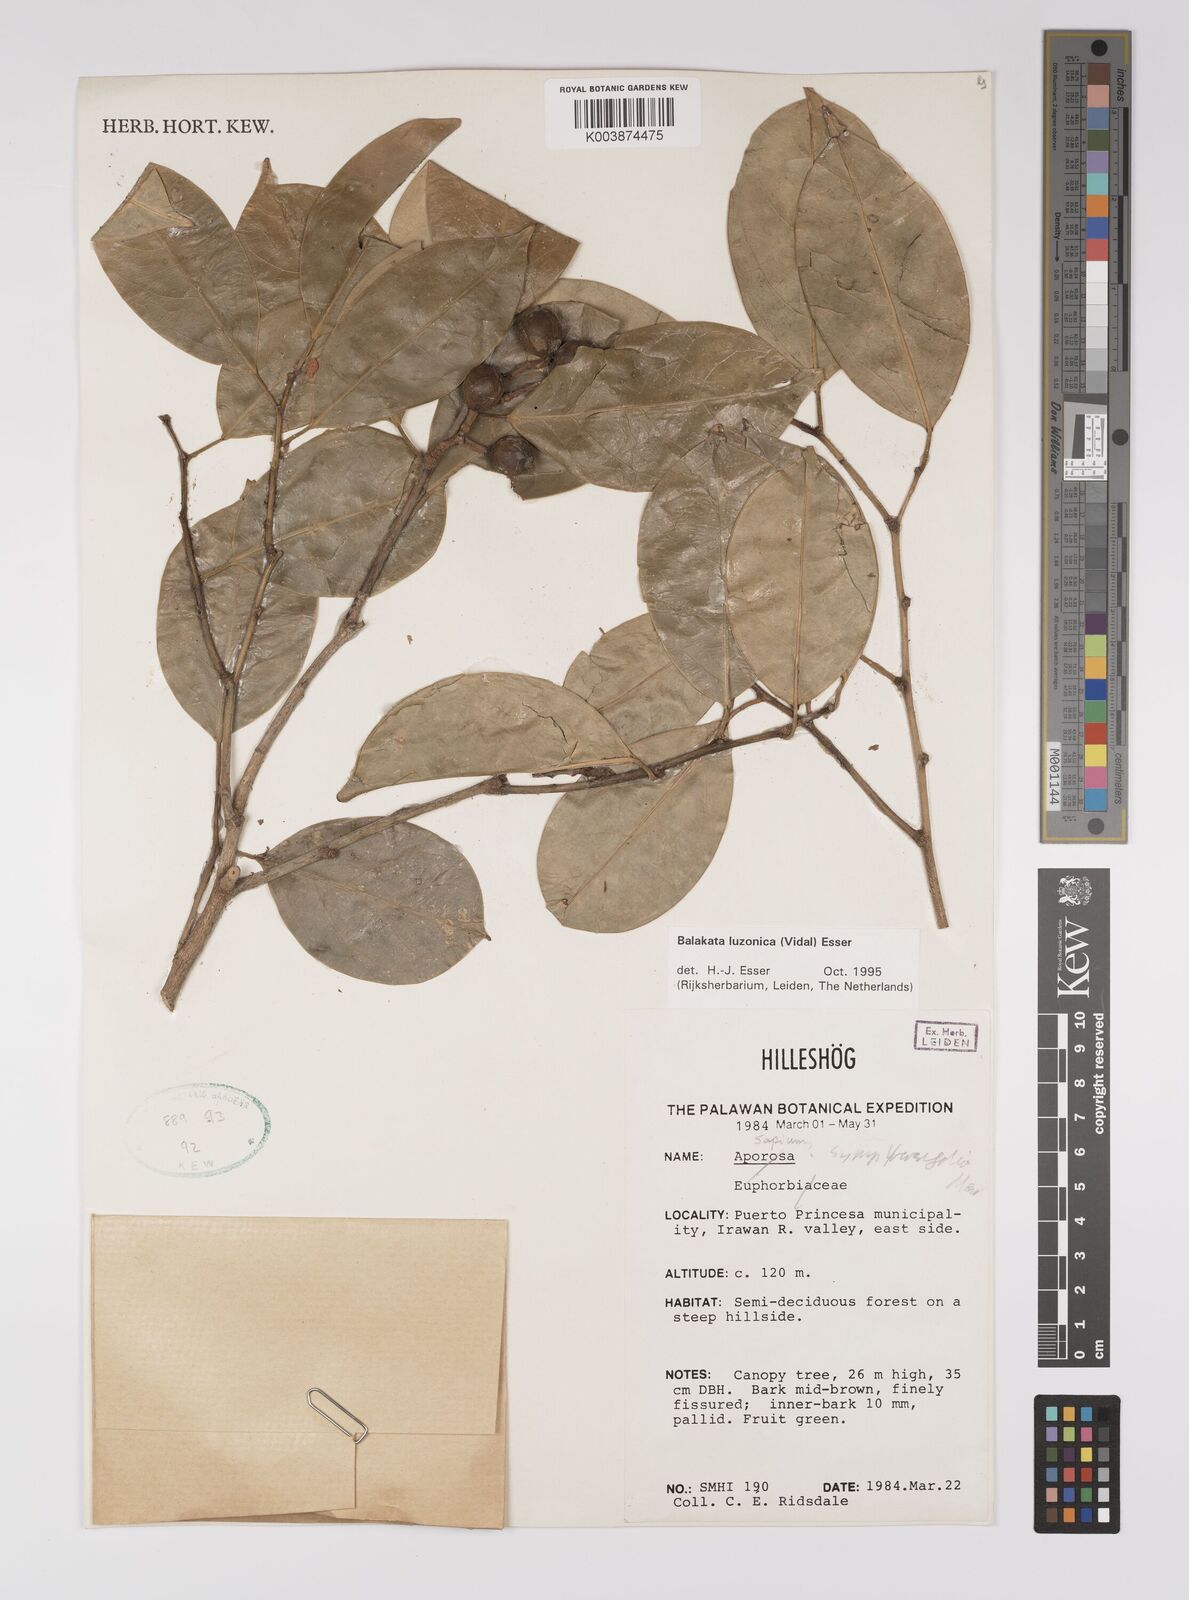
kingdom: Plantae
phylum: Tracheophyta
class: Magnoliopsida
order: Malpighiales
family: Euphorbiaceae
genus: Balakata
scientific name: Balakata luzonica
